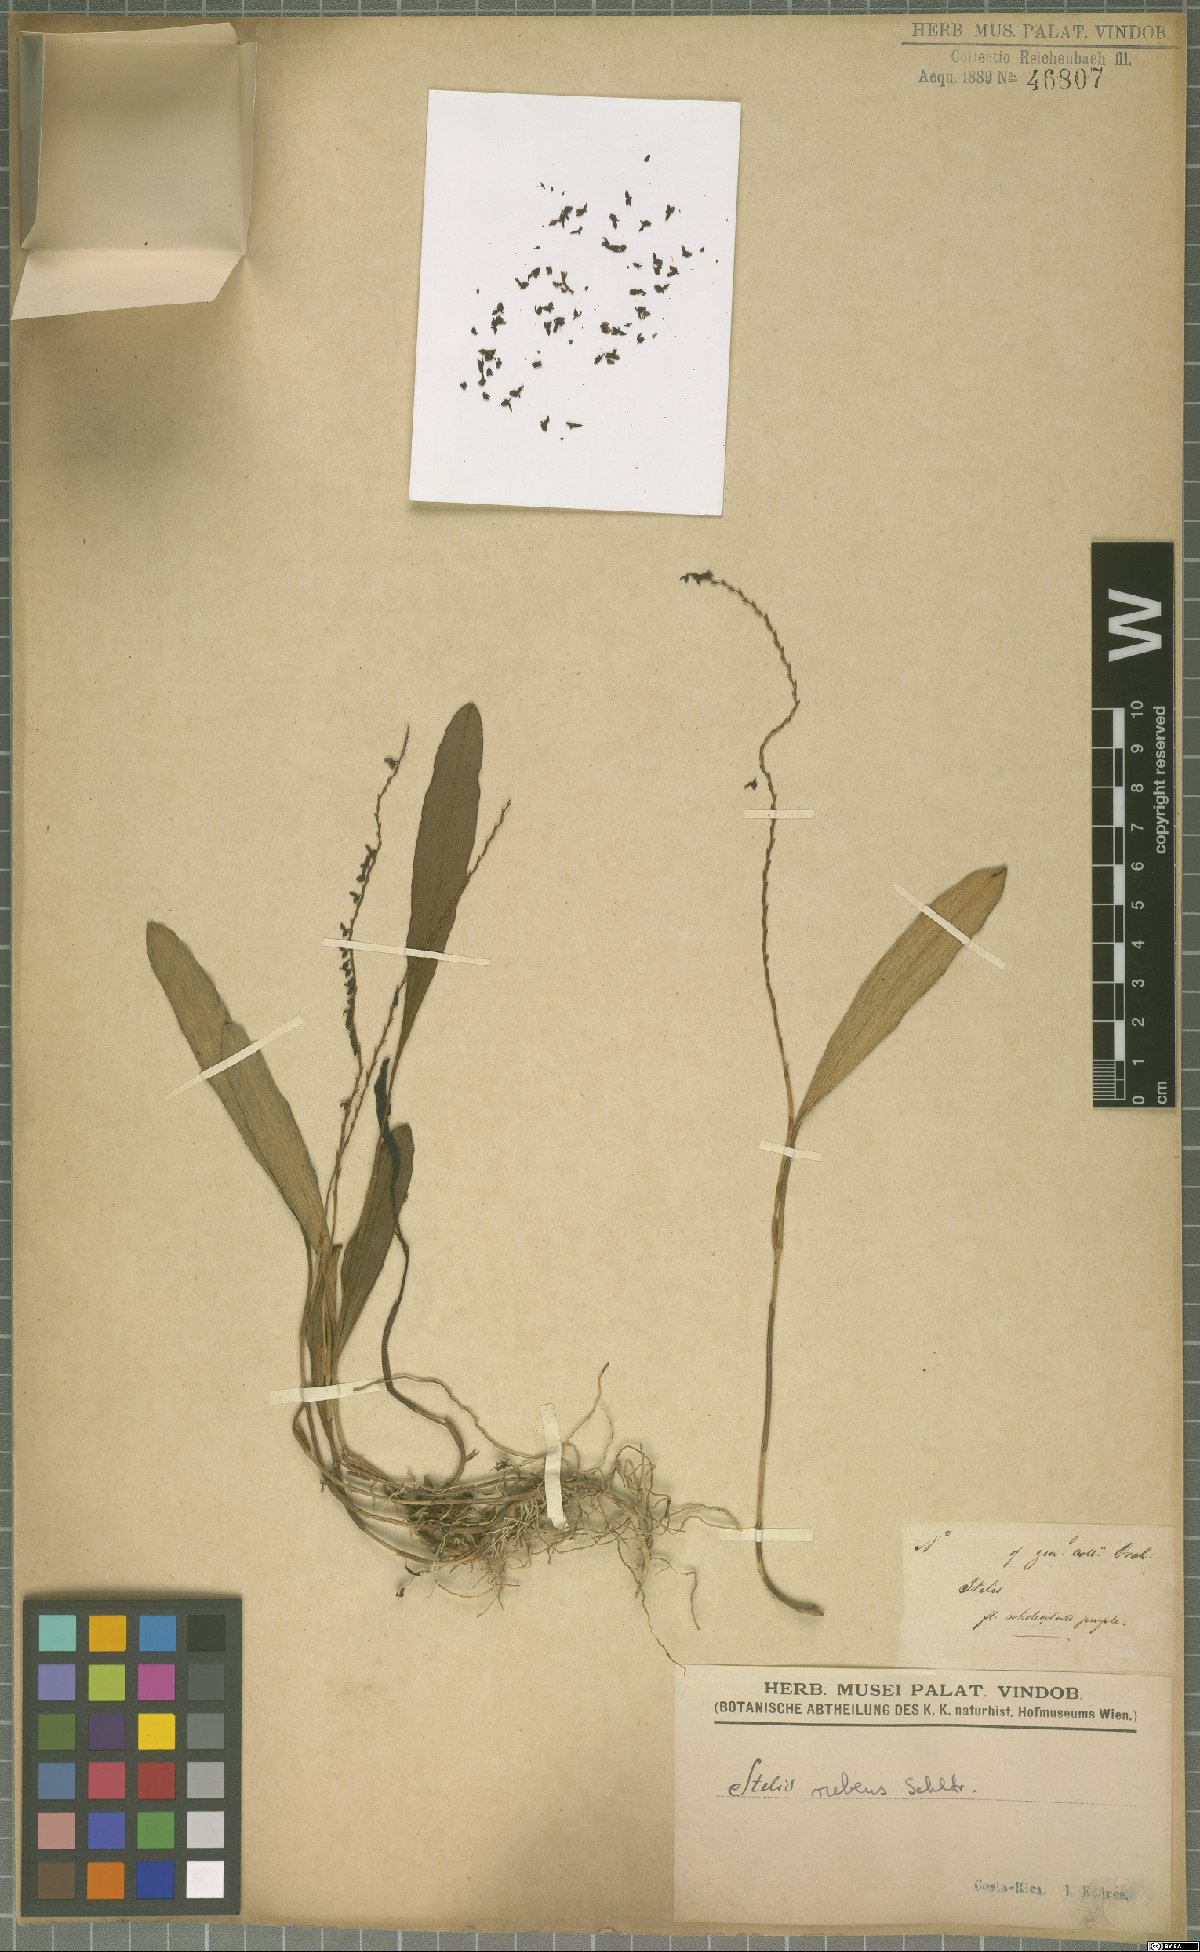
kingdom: Plantae
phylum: Tracheophyta
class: Liliopsida
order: Asparagales
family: Orchidaceae
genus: Stelis
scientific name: Stelis rubens
